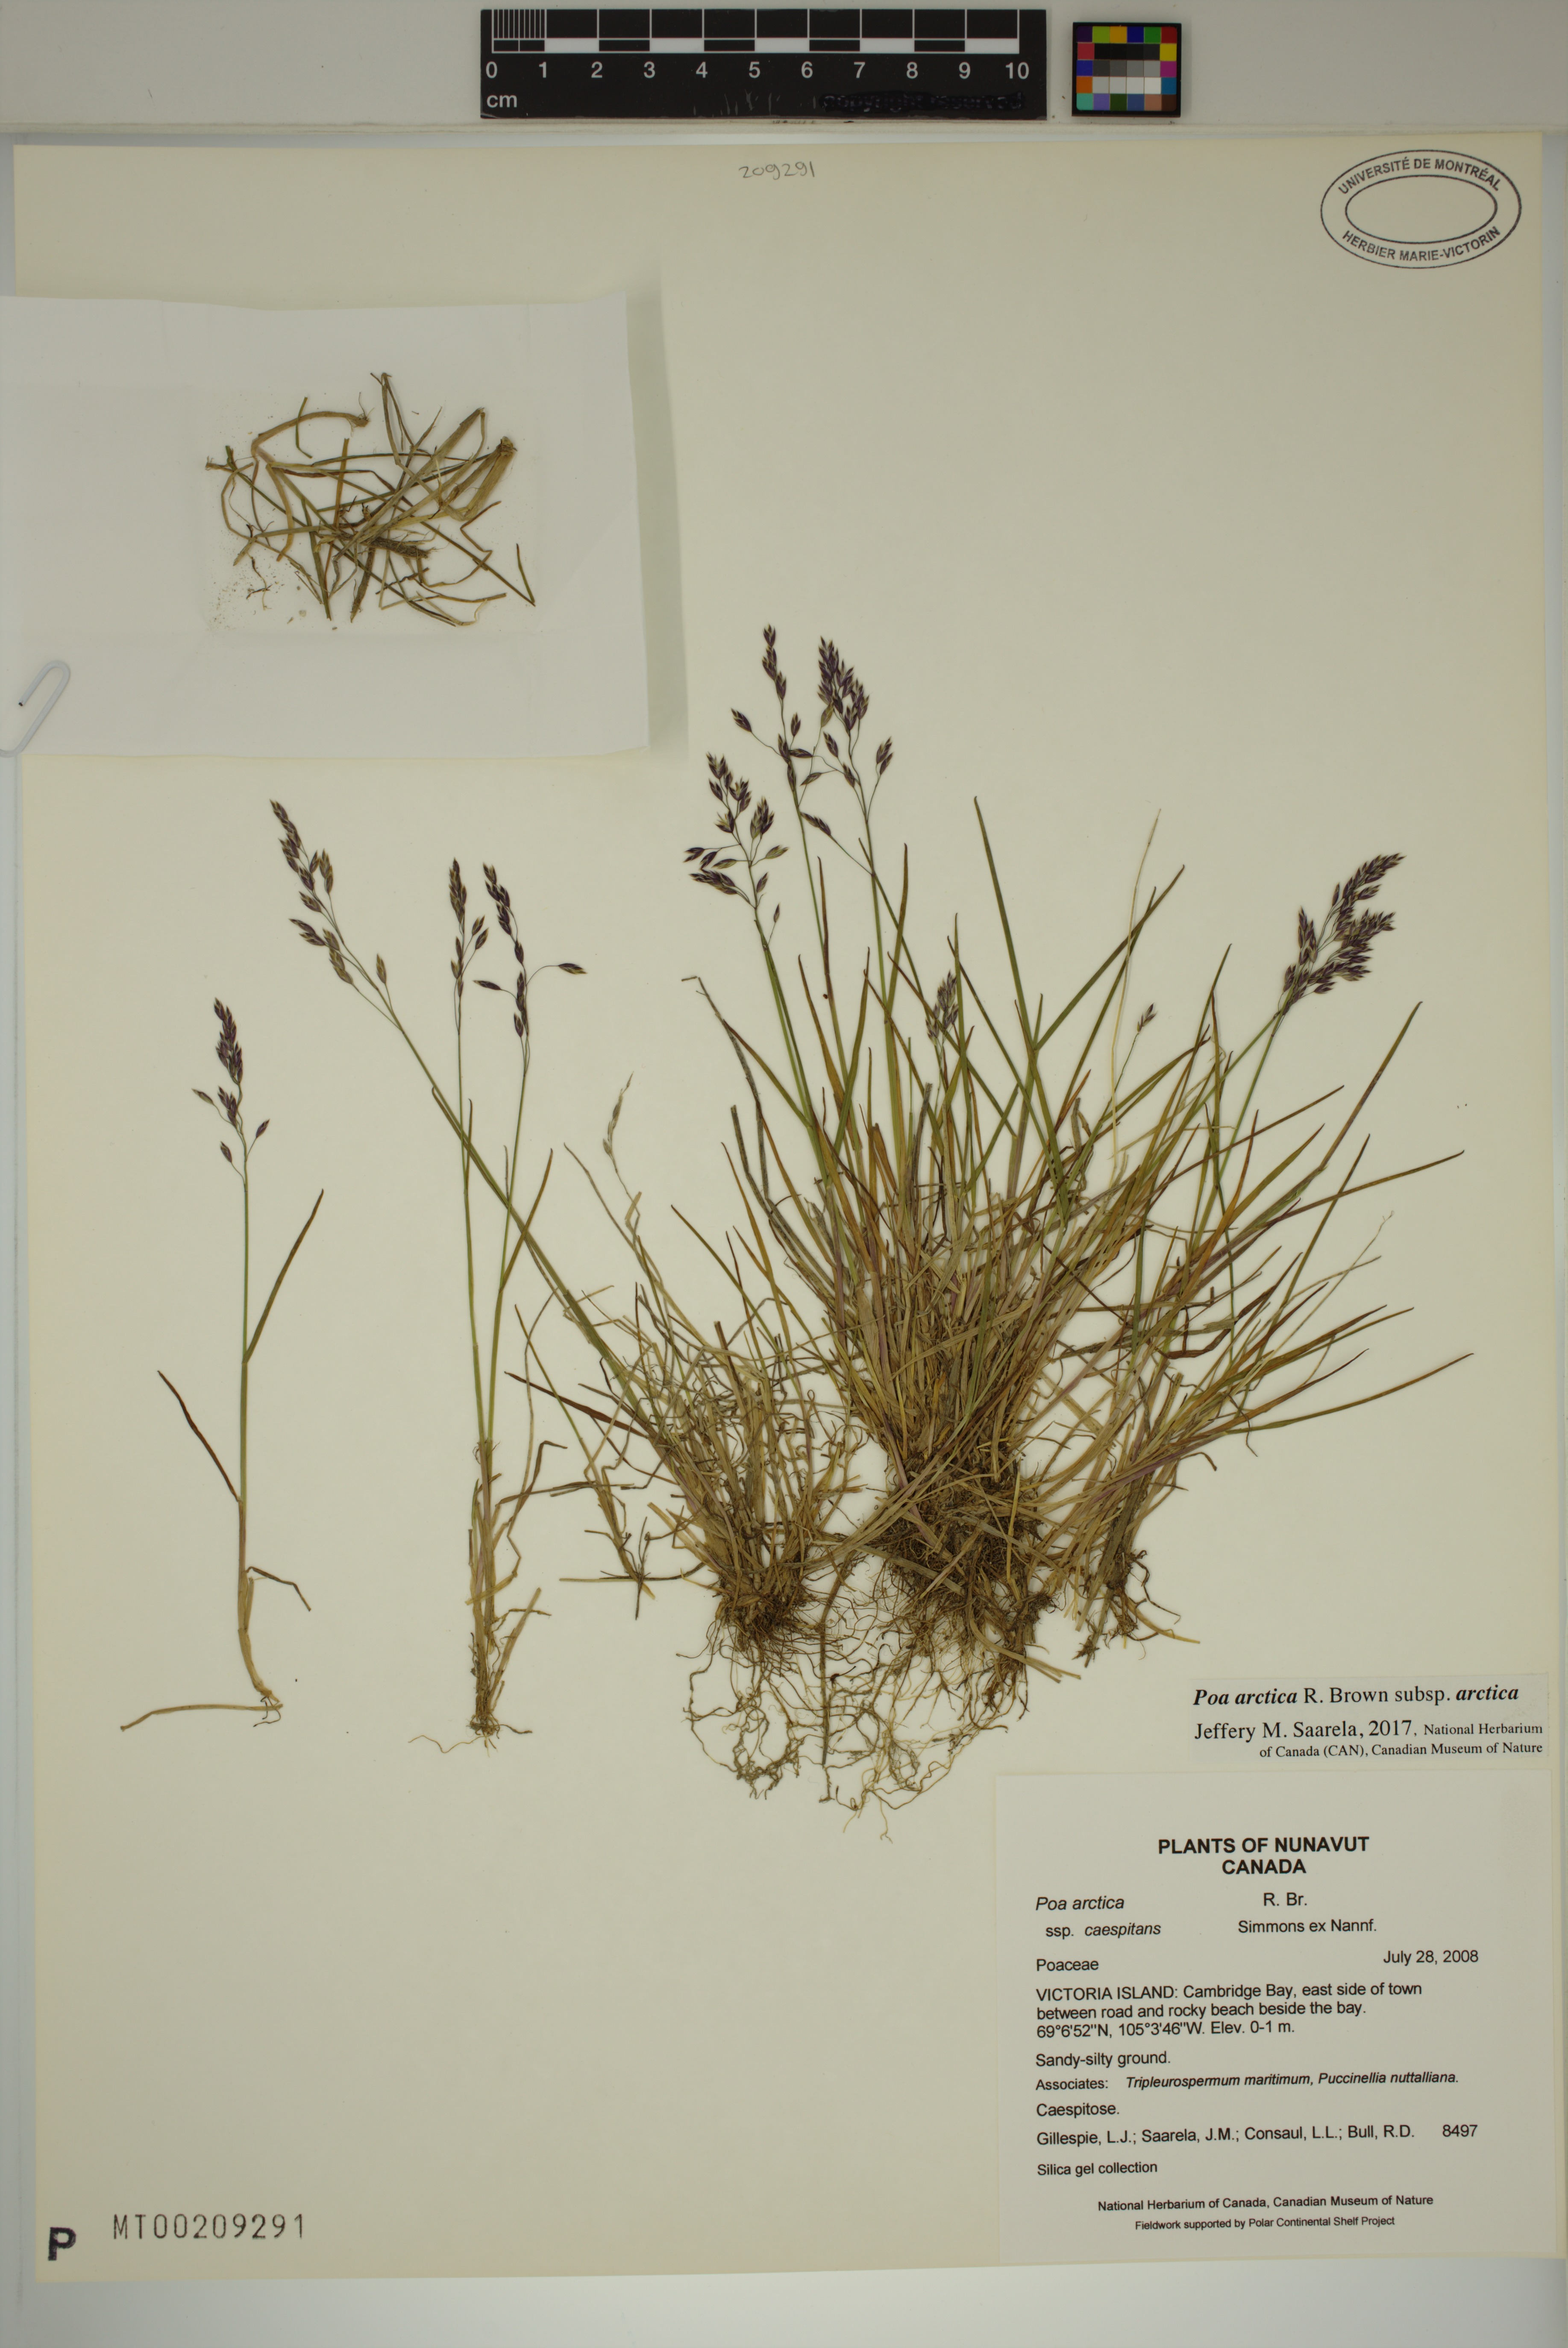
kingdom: Plantae
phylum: Tracheophyta
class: Liliopsida
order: Poales
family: Poaceae
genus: Poa
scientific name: Poa arctica
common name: Arctic bluegrass
